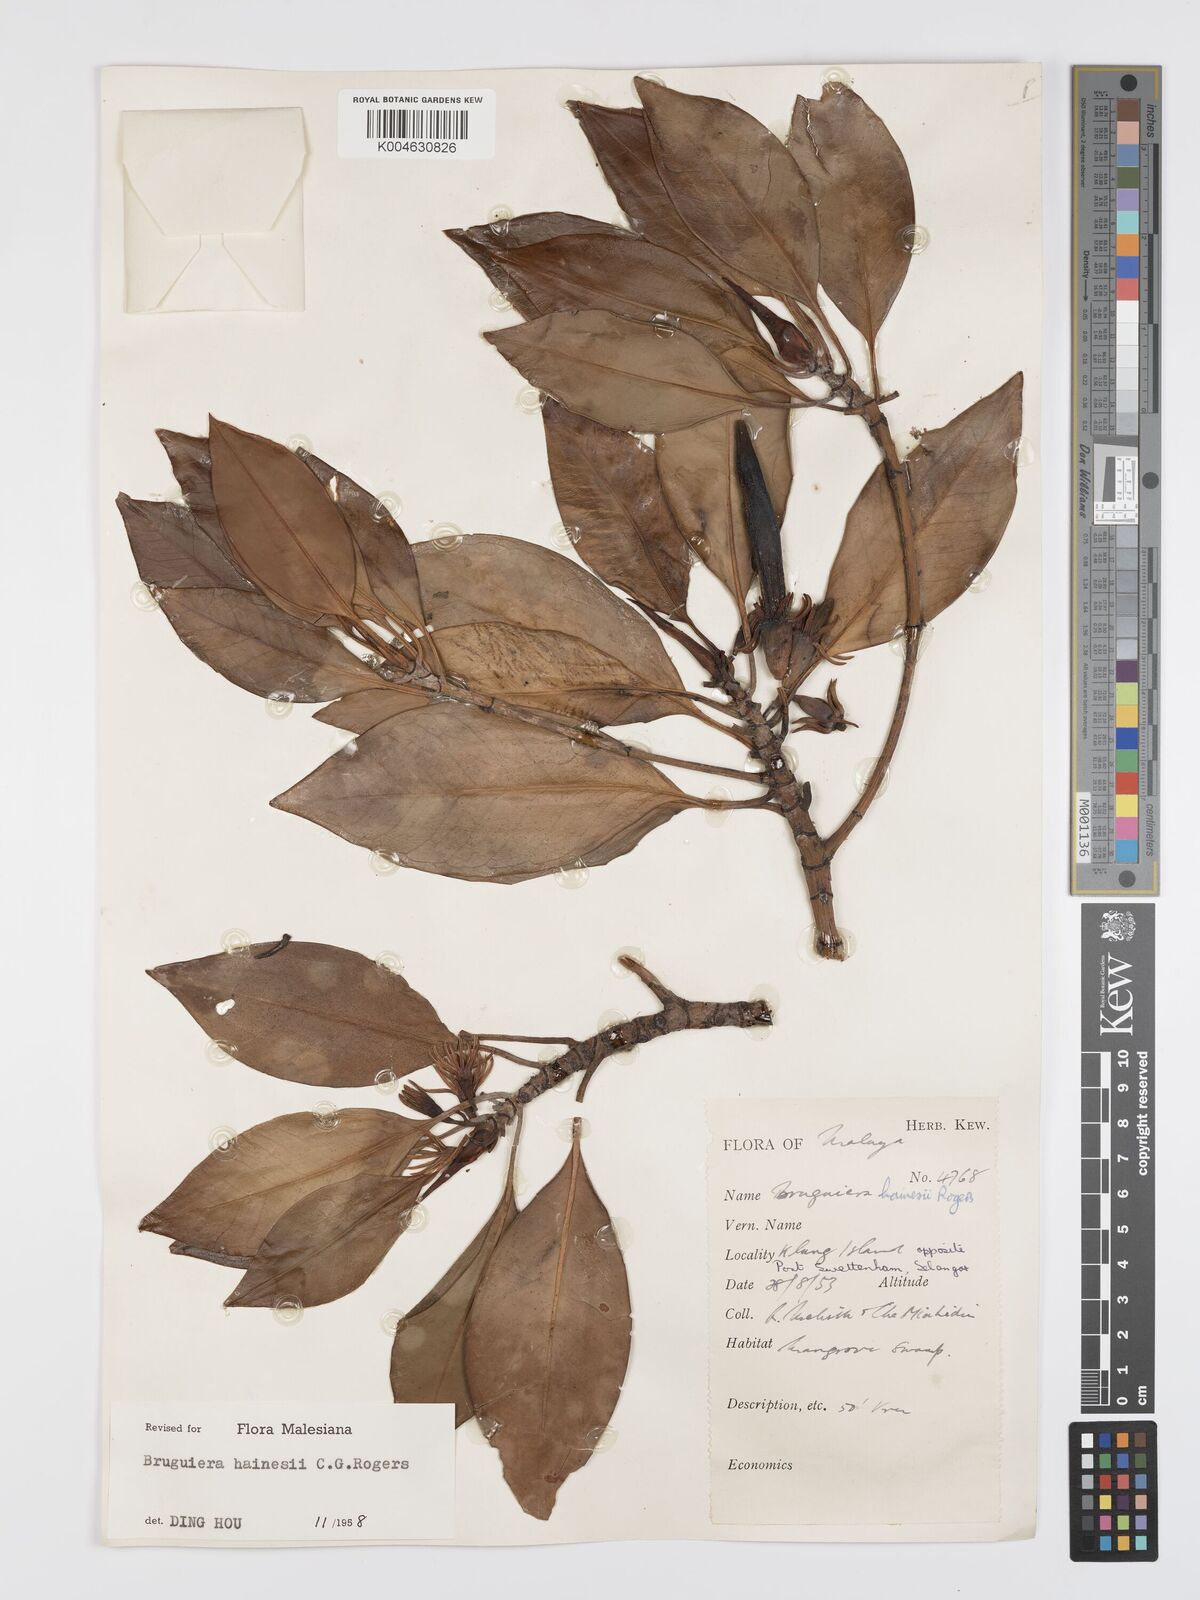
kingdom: Plantae
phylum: Tracheophyta
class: Magnoliopsida
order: Malpighiales
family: Rhizophoraceae
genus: Bruguiera
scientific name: Bruguiera hainesii
